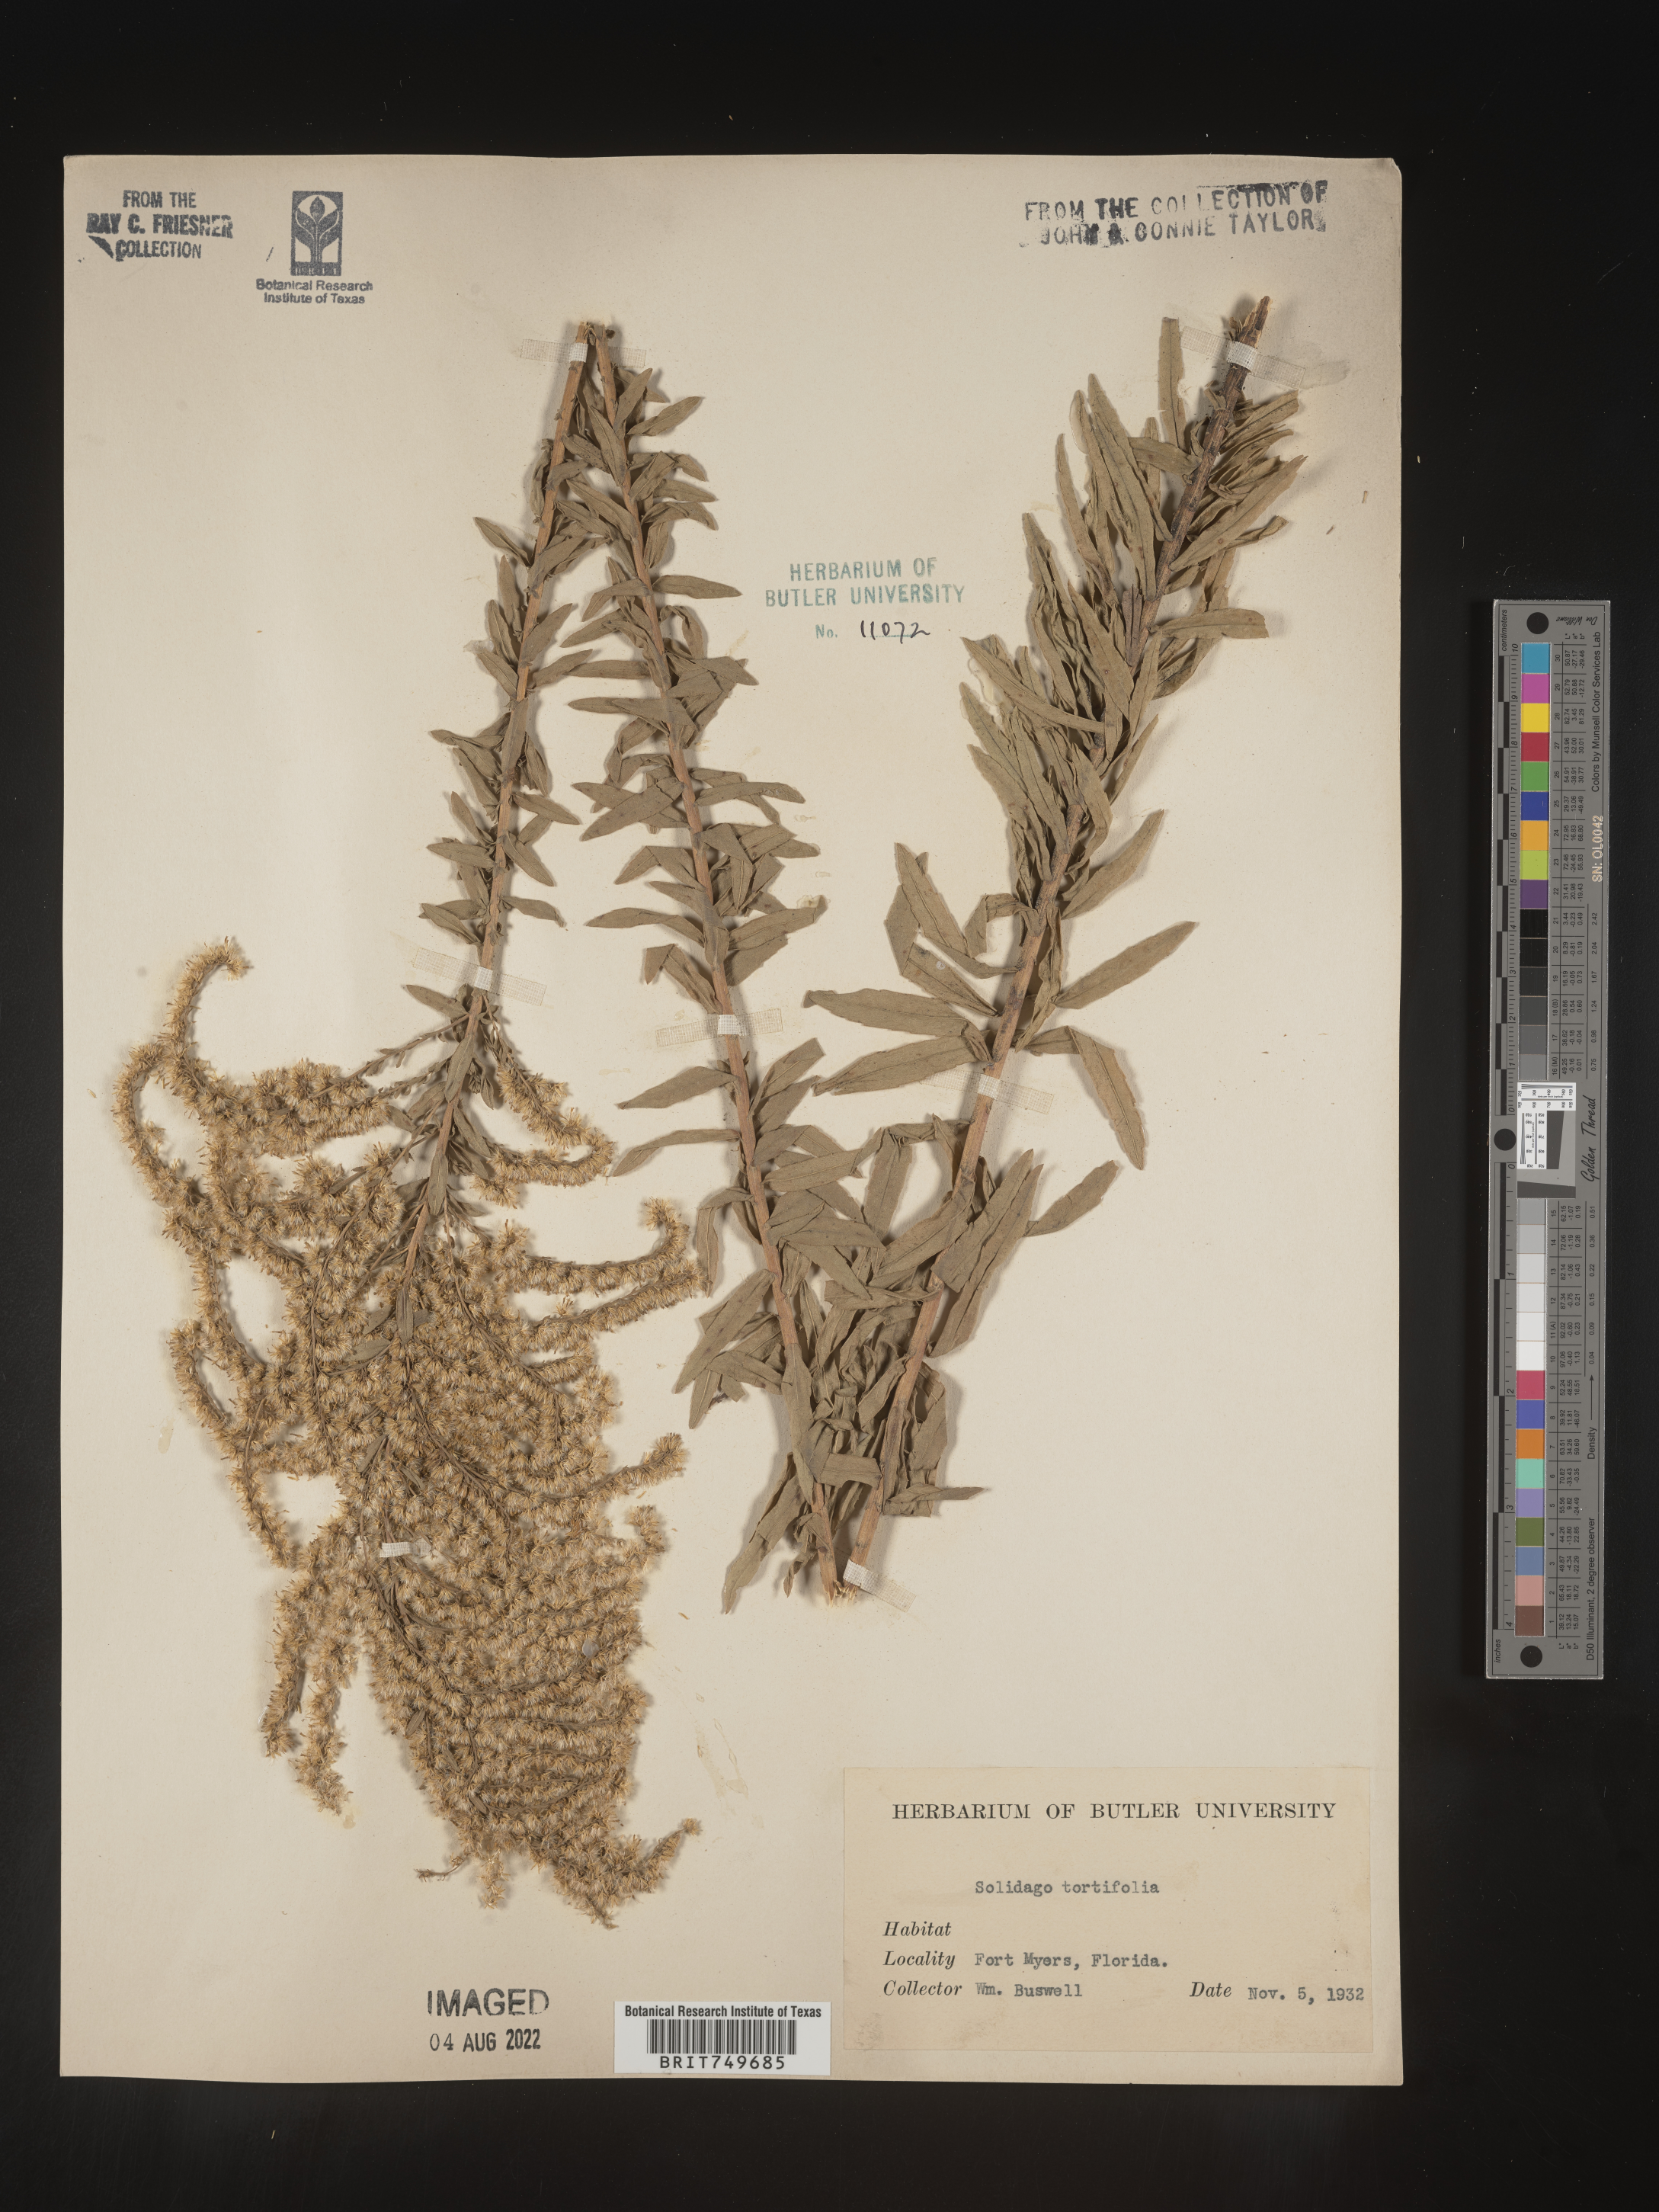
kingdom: Plantae
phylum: Tracheophyta
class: Magnoliopsida
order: Asterales
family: Asteraceae
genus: Solidago
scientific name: Solidago tortifolia
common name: Twisted-leaf goldenrod
